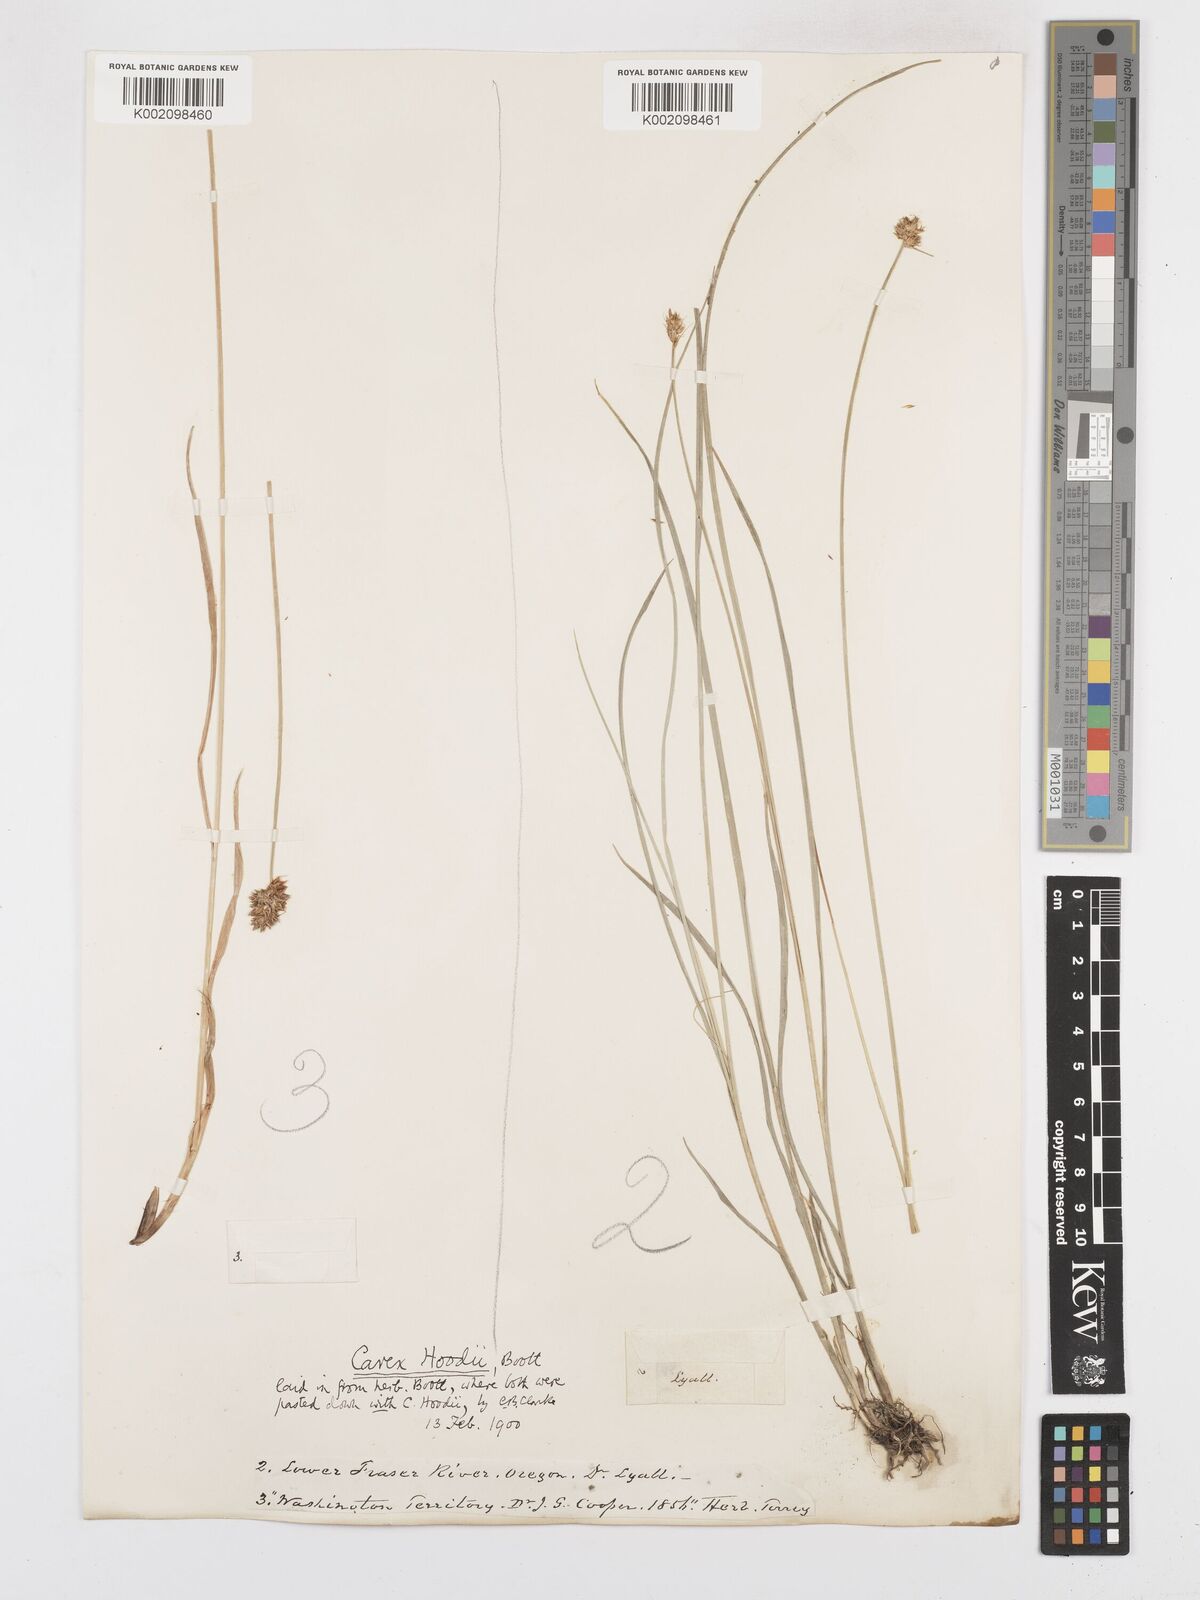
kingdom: Plantae
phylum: Tracheophyta
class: Liliopsida
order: Poales
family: Cyperaceae
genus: Carex
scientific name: Carex hoodii
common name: Hood's sedge
